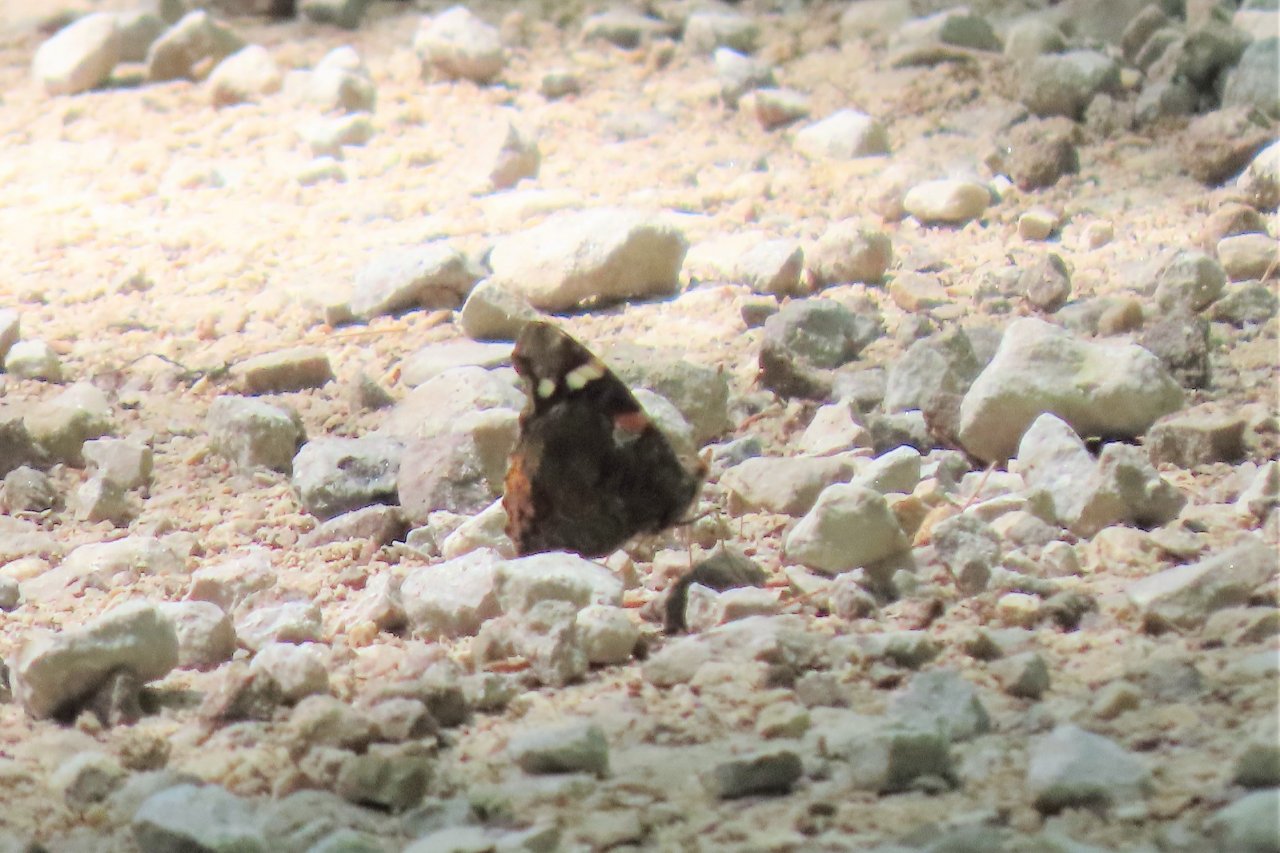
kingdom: Animalia
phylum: Arthropoda
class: Insecta
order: Lepidoptera
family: Nymphalidae
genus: Vanessa
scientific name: Vanessa atalanta
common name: Red Admiral
